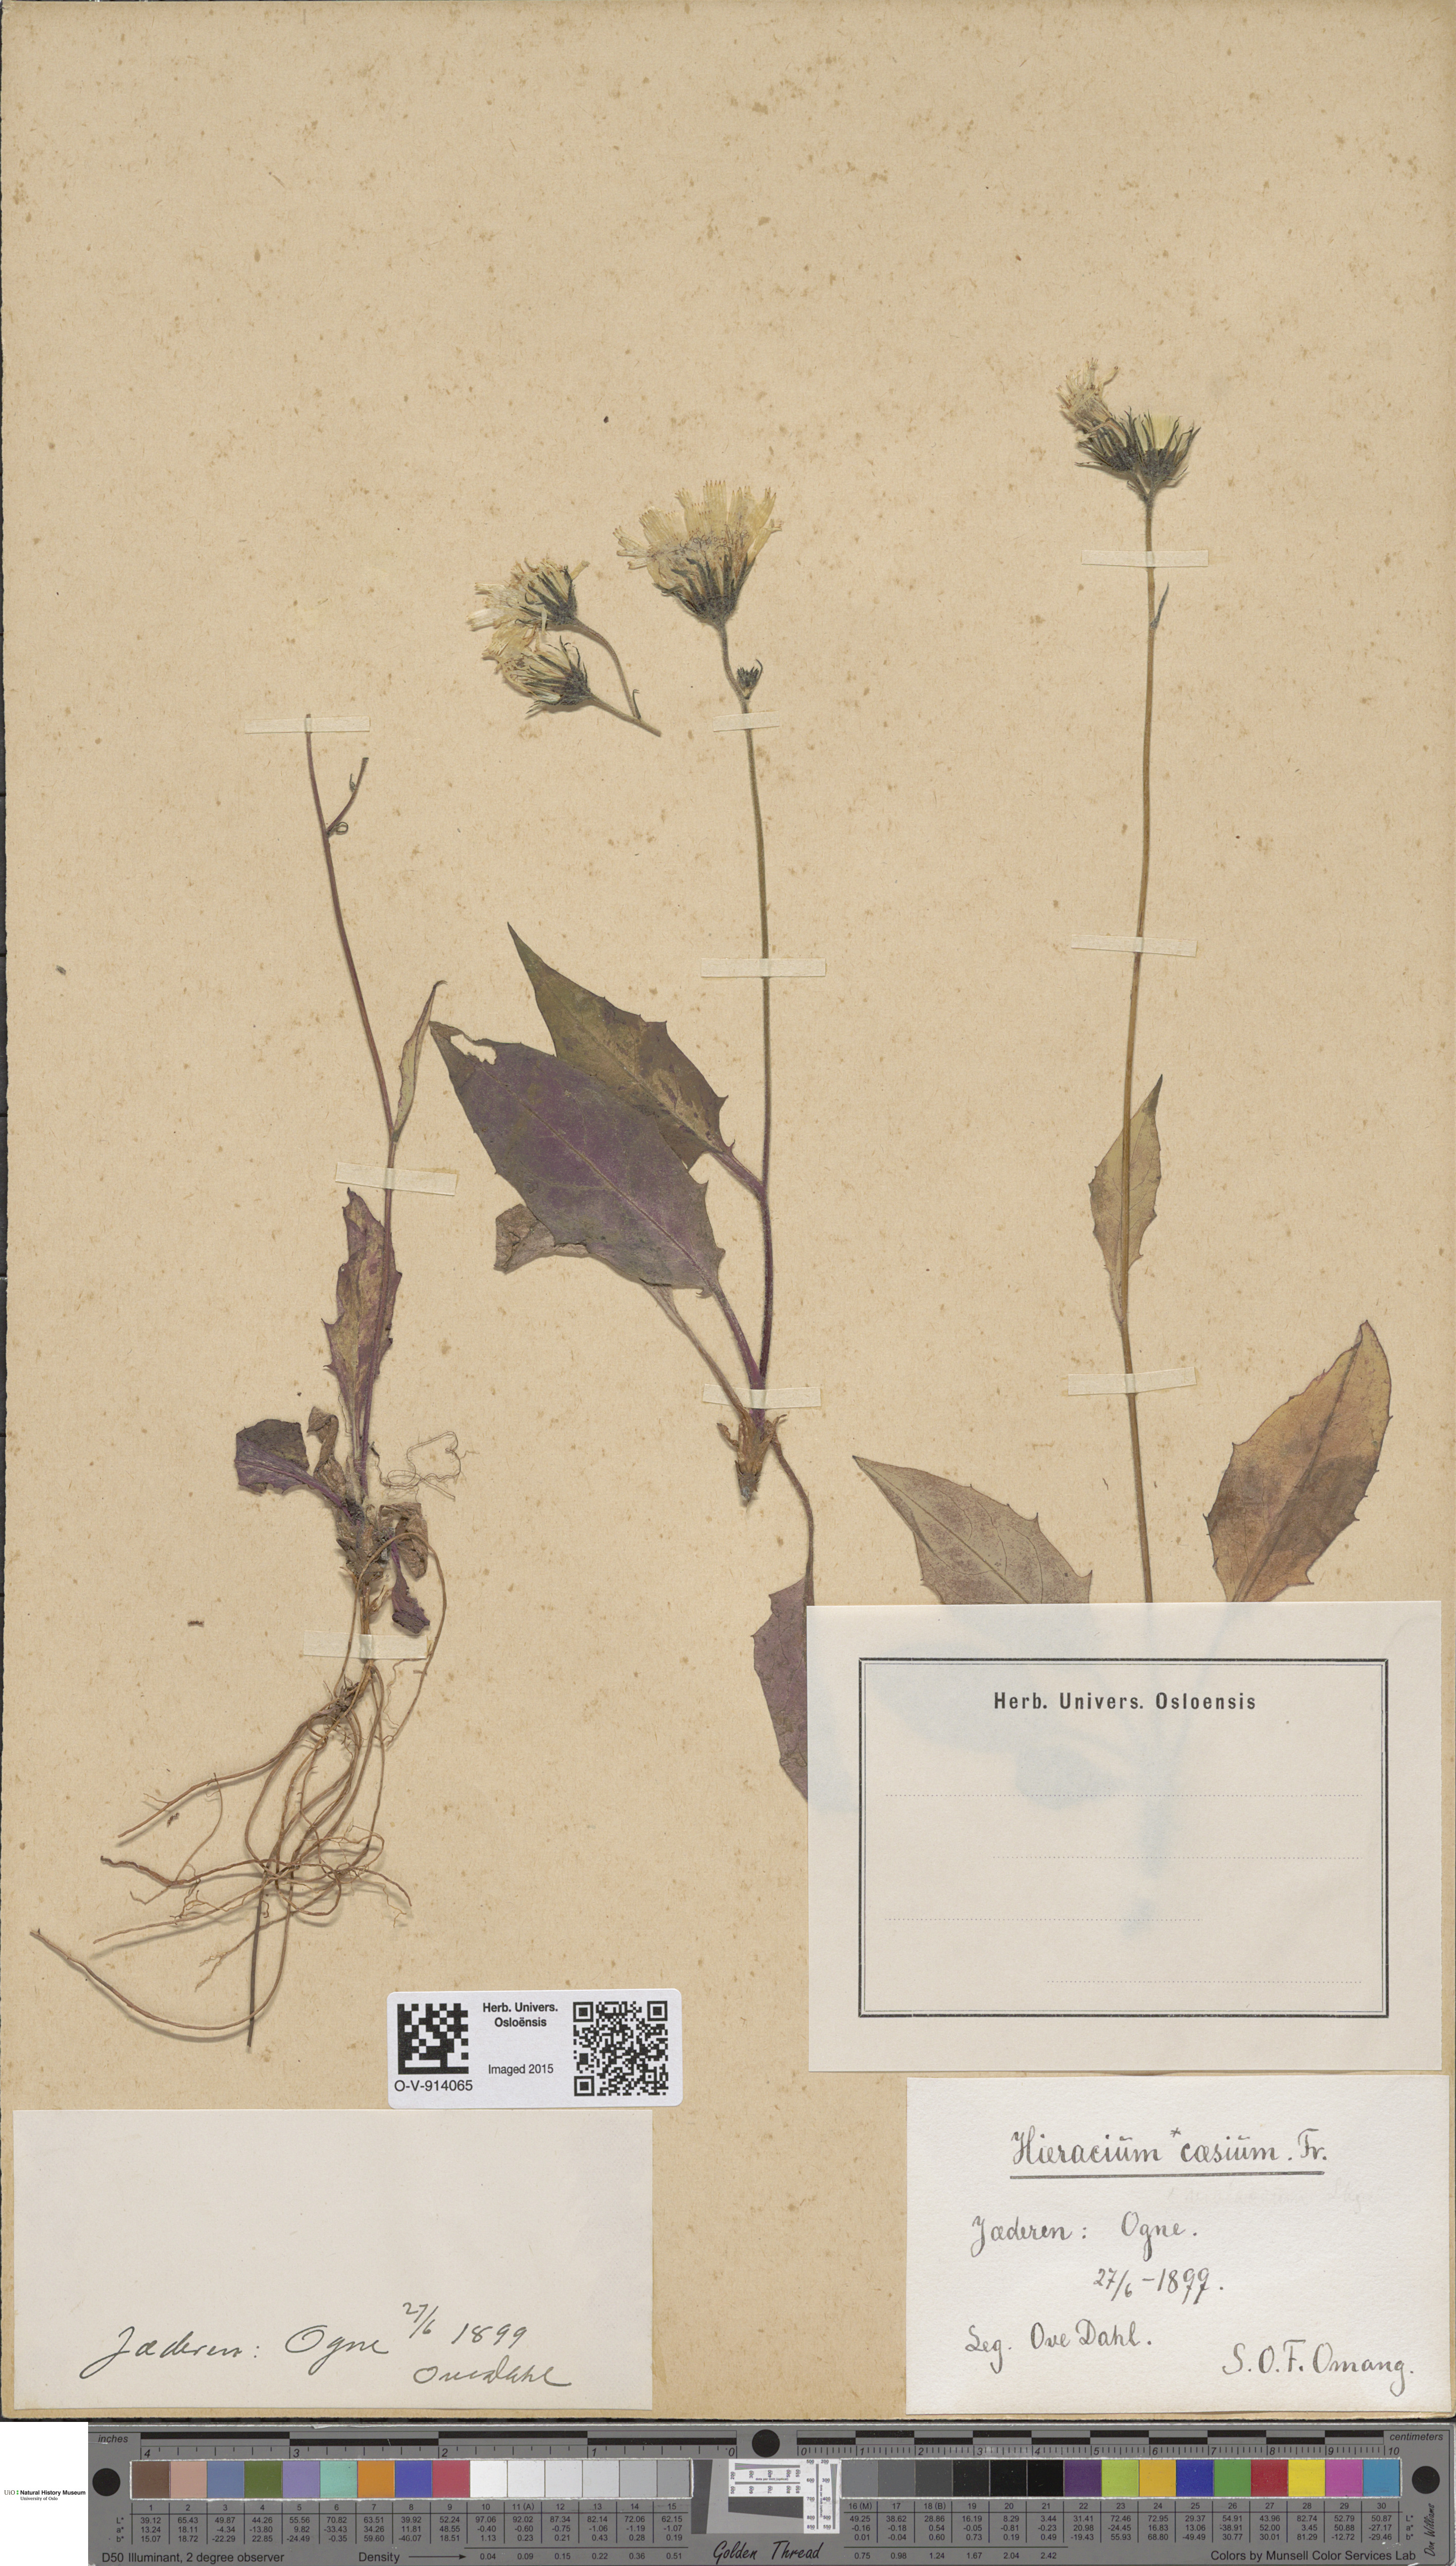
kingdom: Plantae
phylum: Tracheophyta
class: Magnoliopsida
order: Asterales
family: Asteraceae
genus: Hieracium
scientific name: Hieracium caesium
